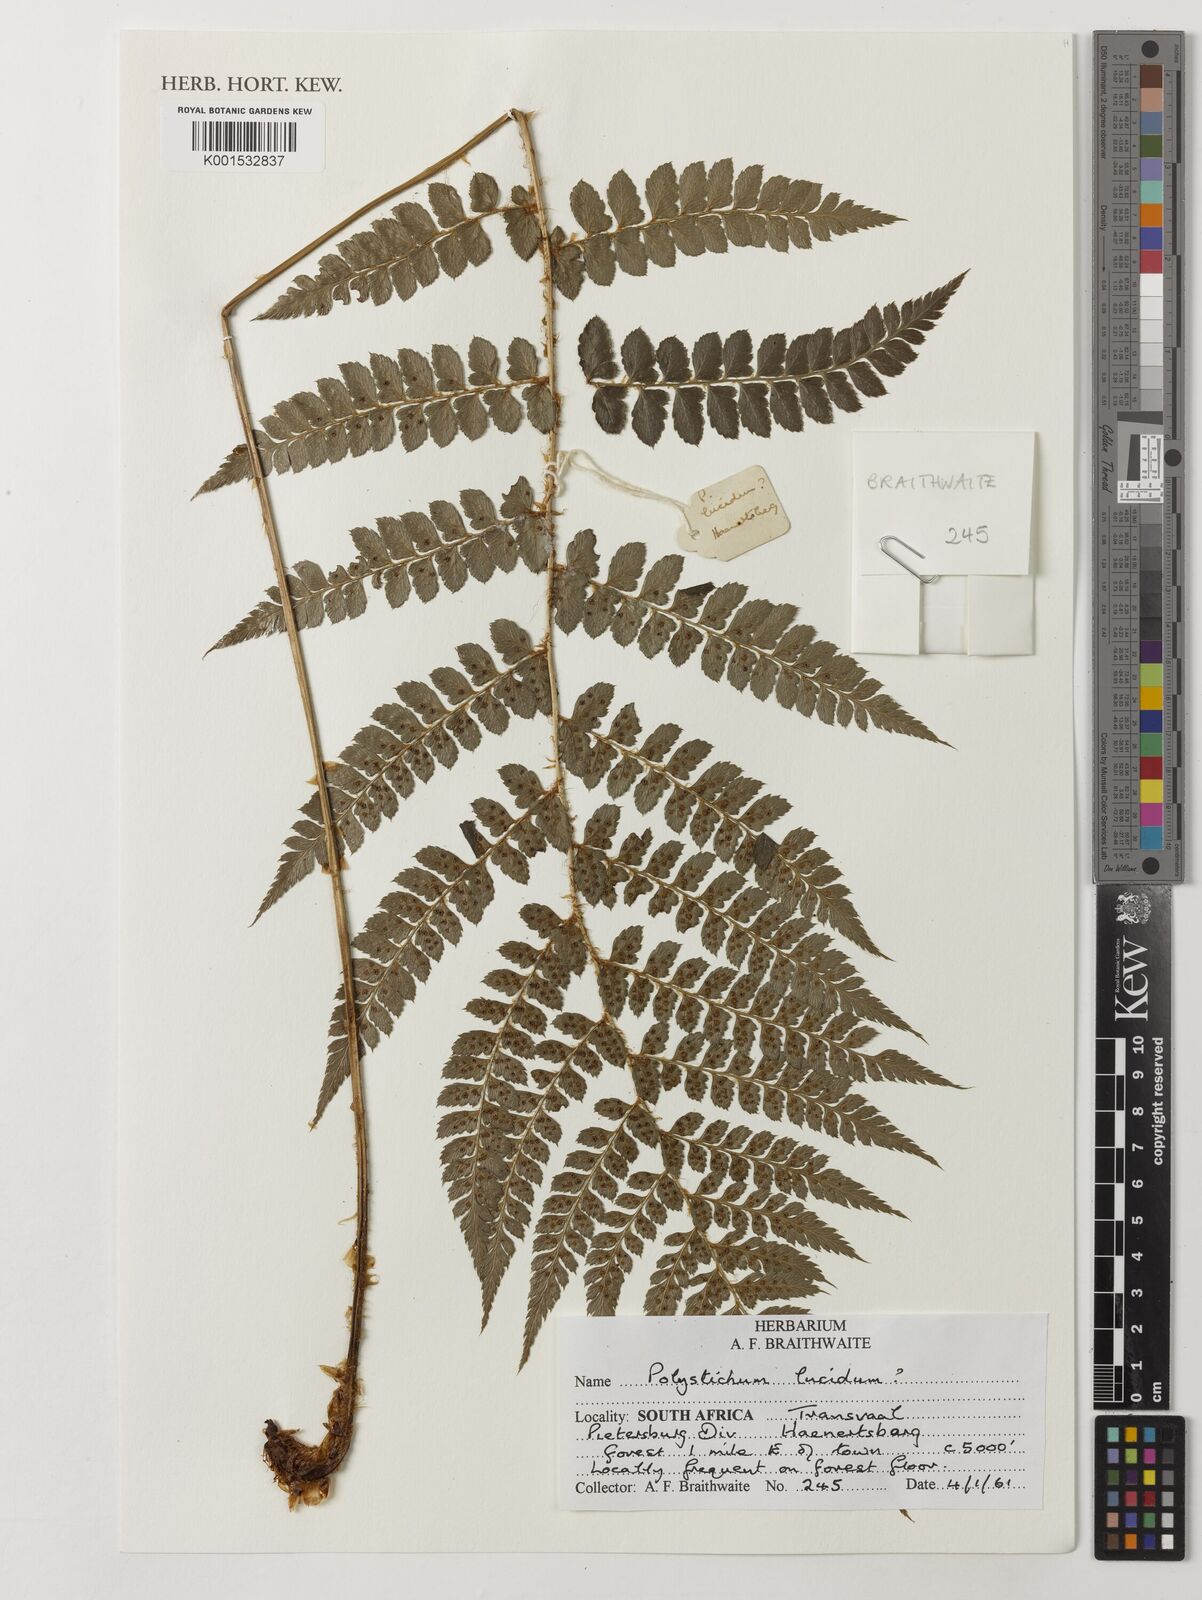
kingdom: Plantae
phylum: Tracheophyta
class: Polypodiopsida
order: Polypodiales
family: Aspleniaceae
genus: Asplenium
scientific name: Asplenium adiantum-nigrum
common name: Black spleenwort
